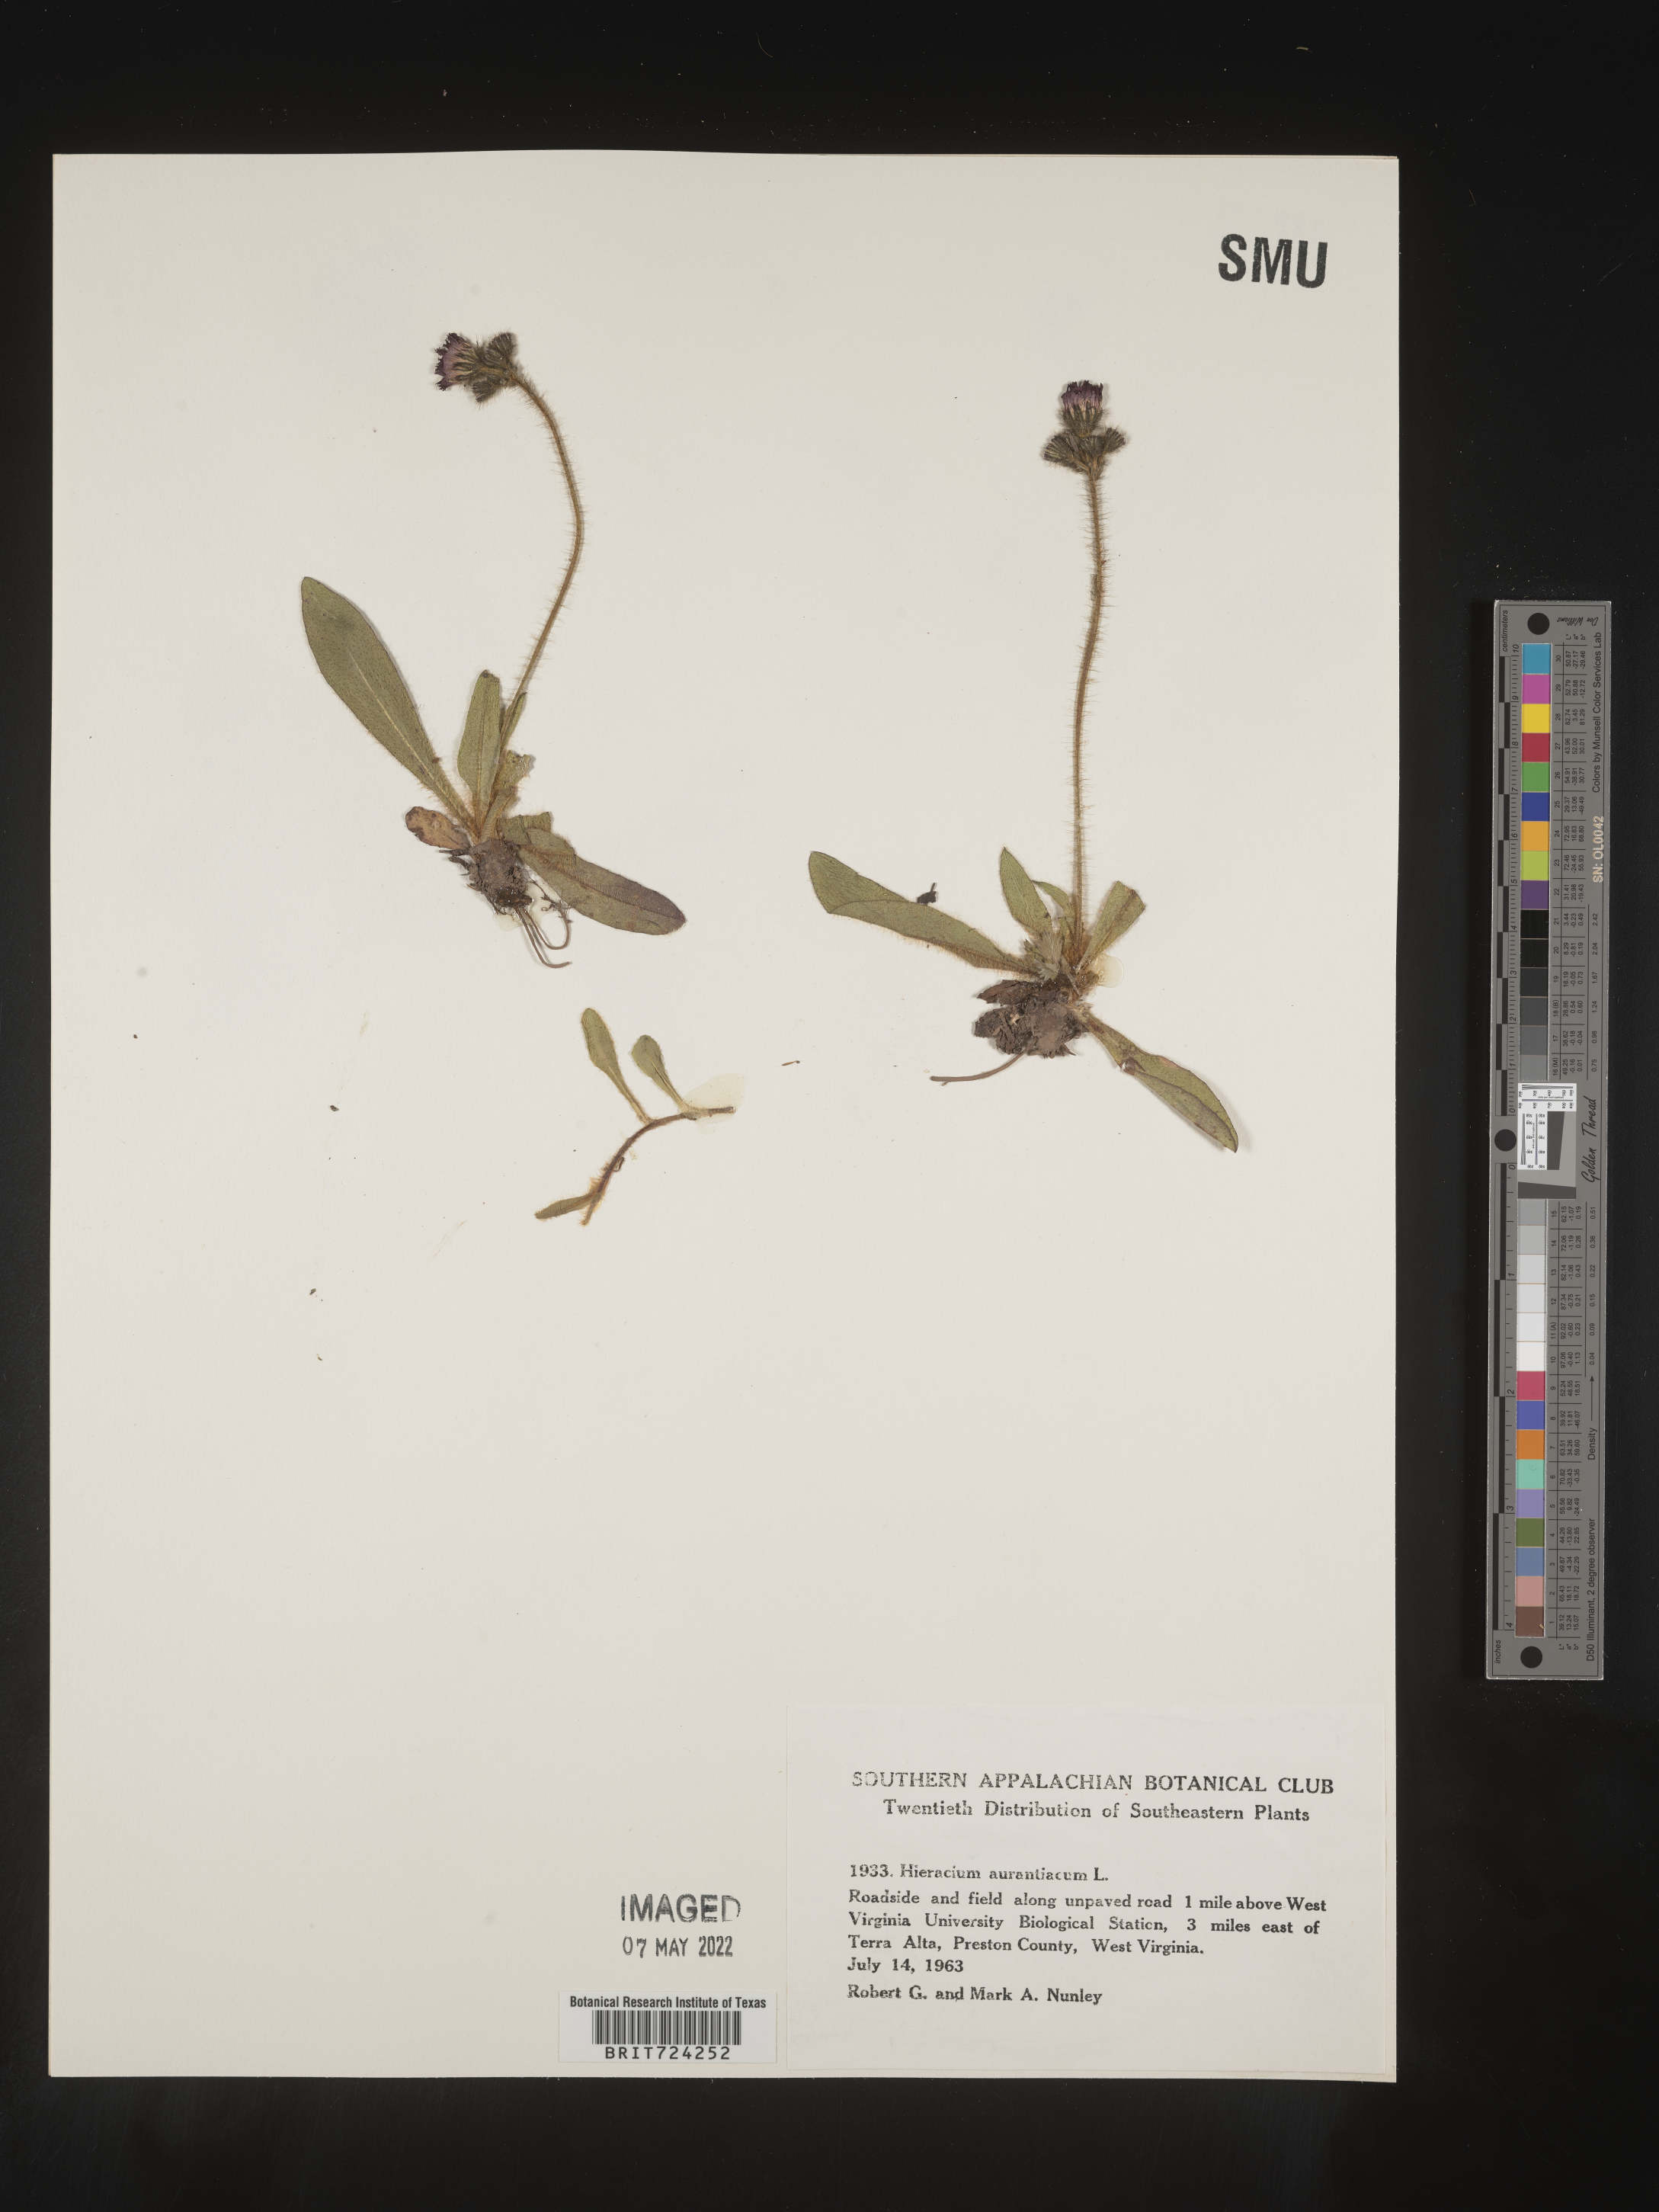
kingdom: Plantae
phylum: Tracheophyta
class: Magnoliopsida
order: Asterales
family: Asteraceae
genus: Pilosella
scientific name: Pilosella aurantiaca
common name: Fox-and-cubs
